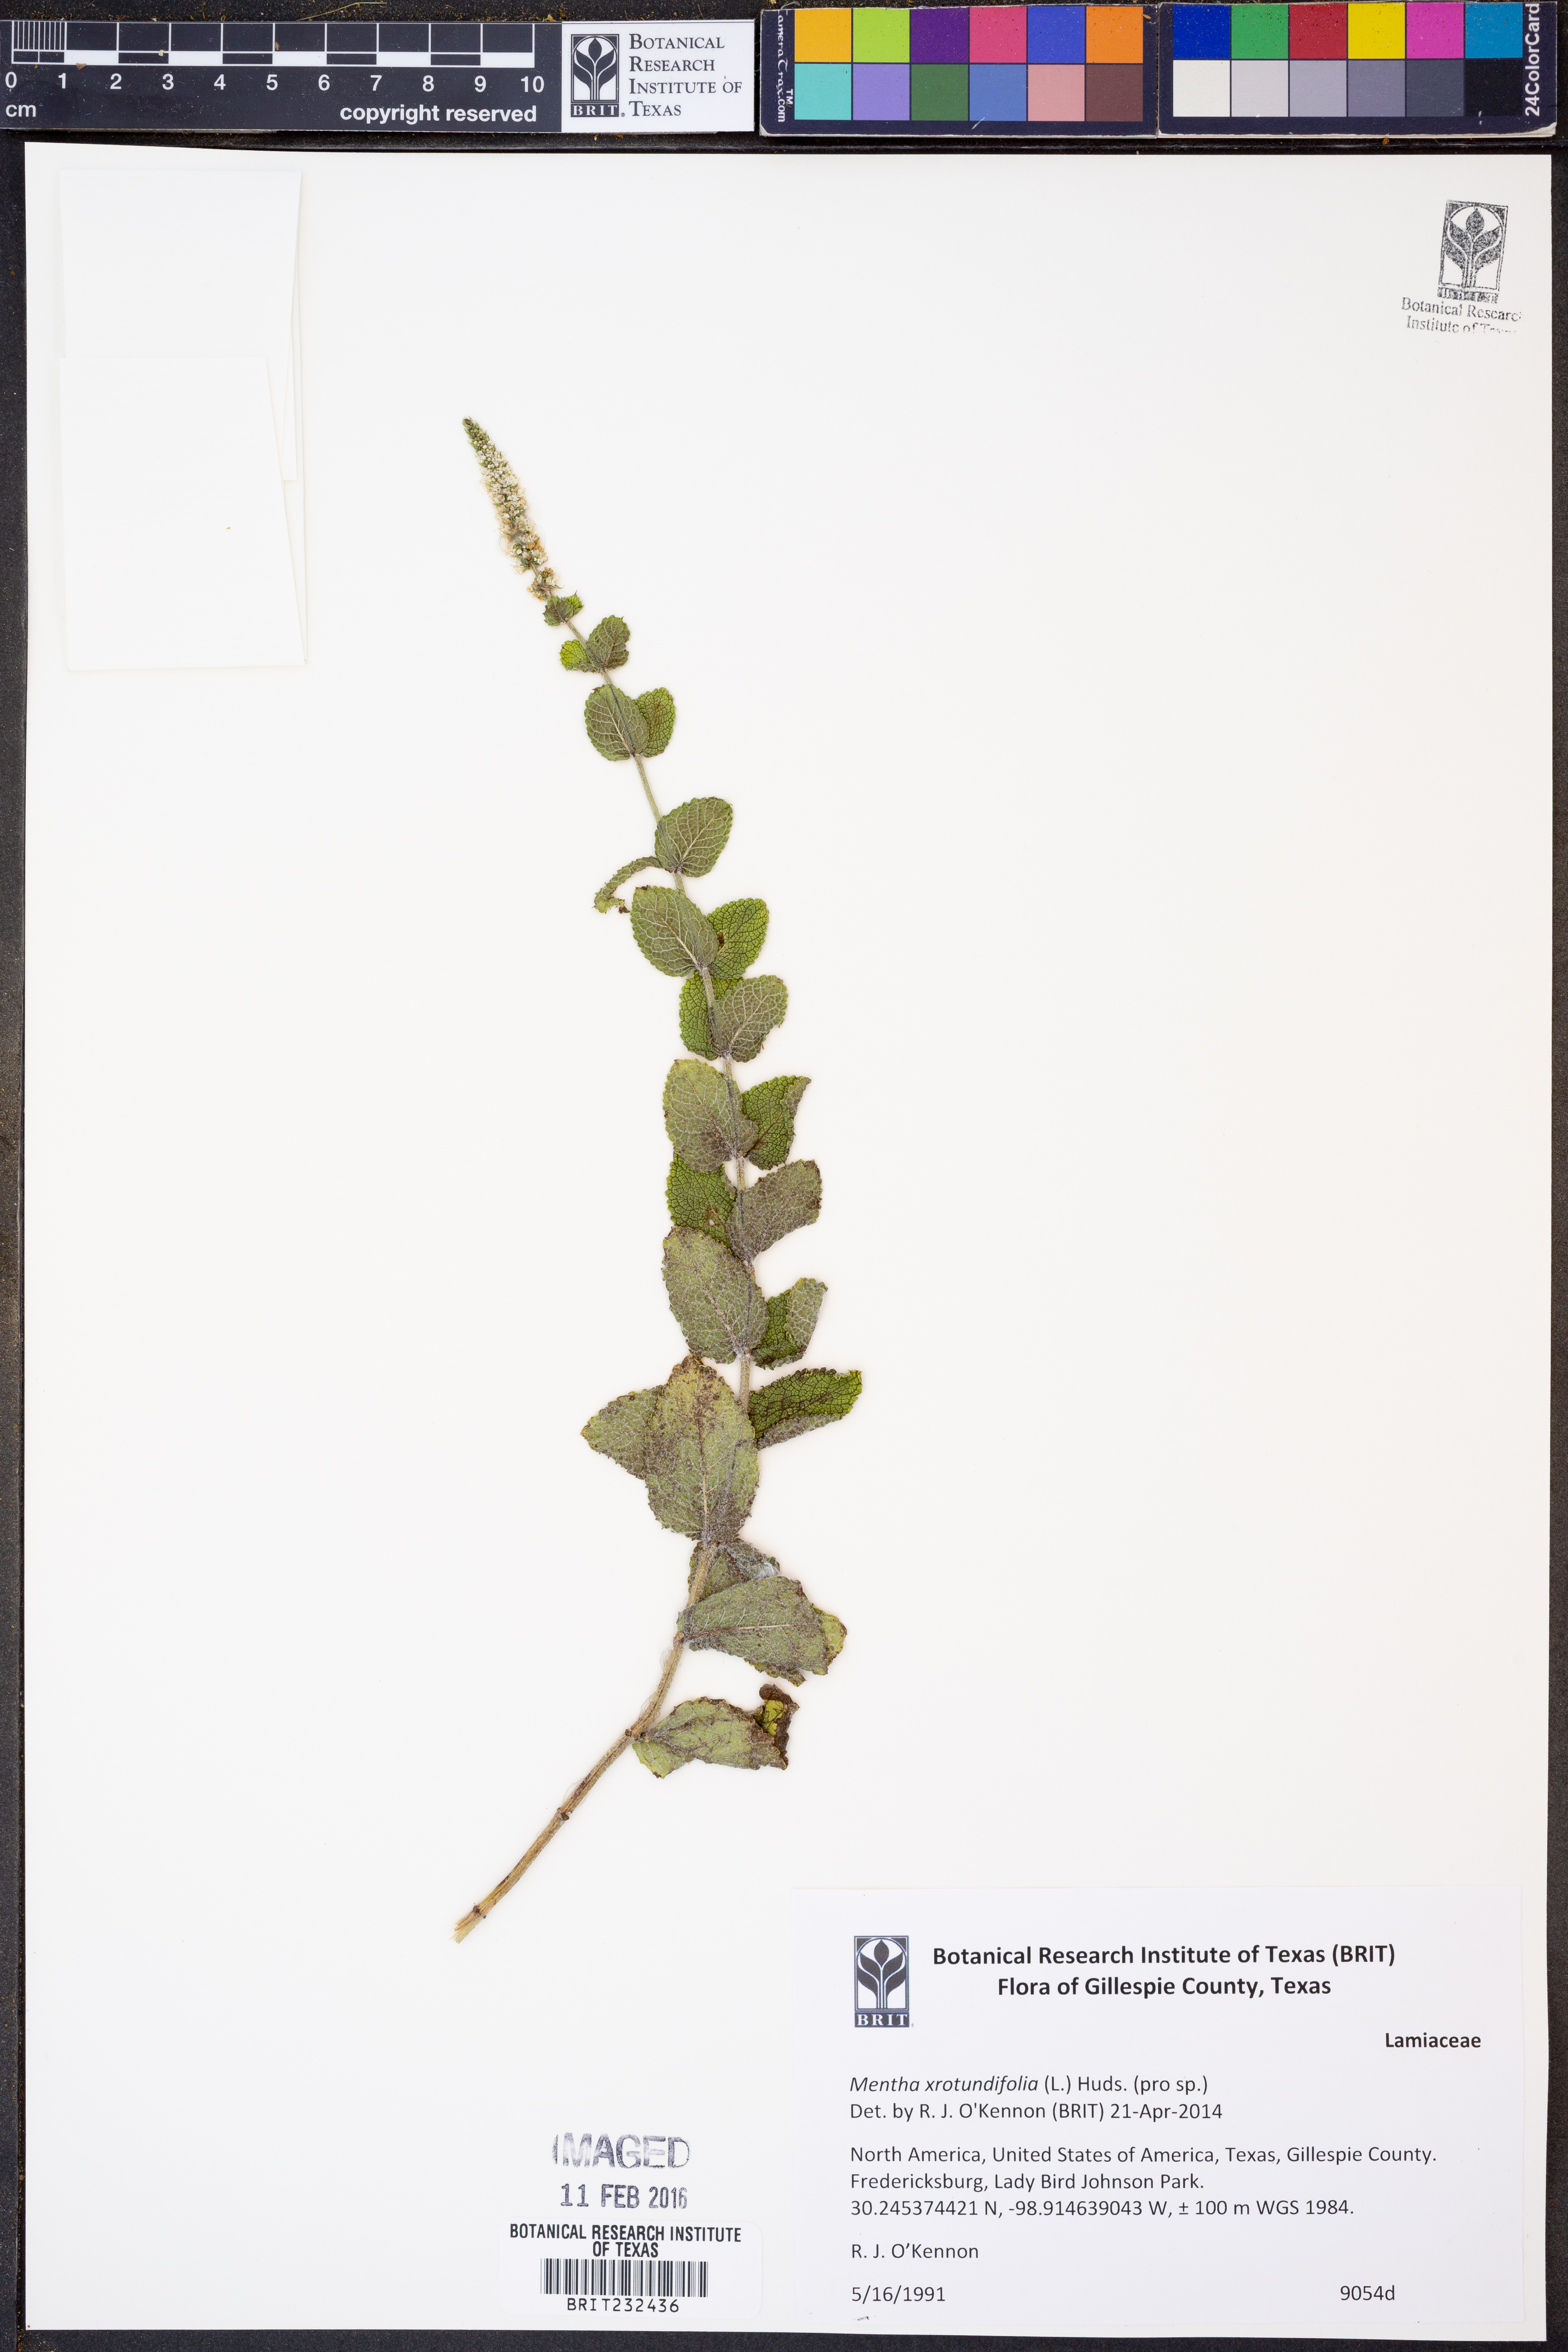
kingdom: Plantae
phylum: Tracheophyta
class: Magnoliopsida
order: Lamiales
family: Lamiaceae
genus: Mentha
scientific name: Mentha rotundifolia
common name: Bigleaf mint
